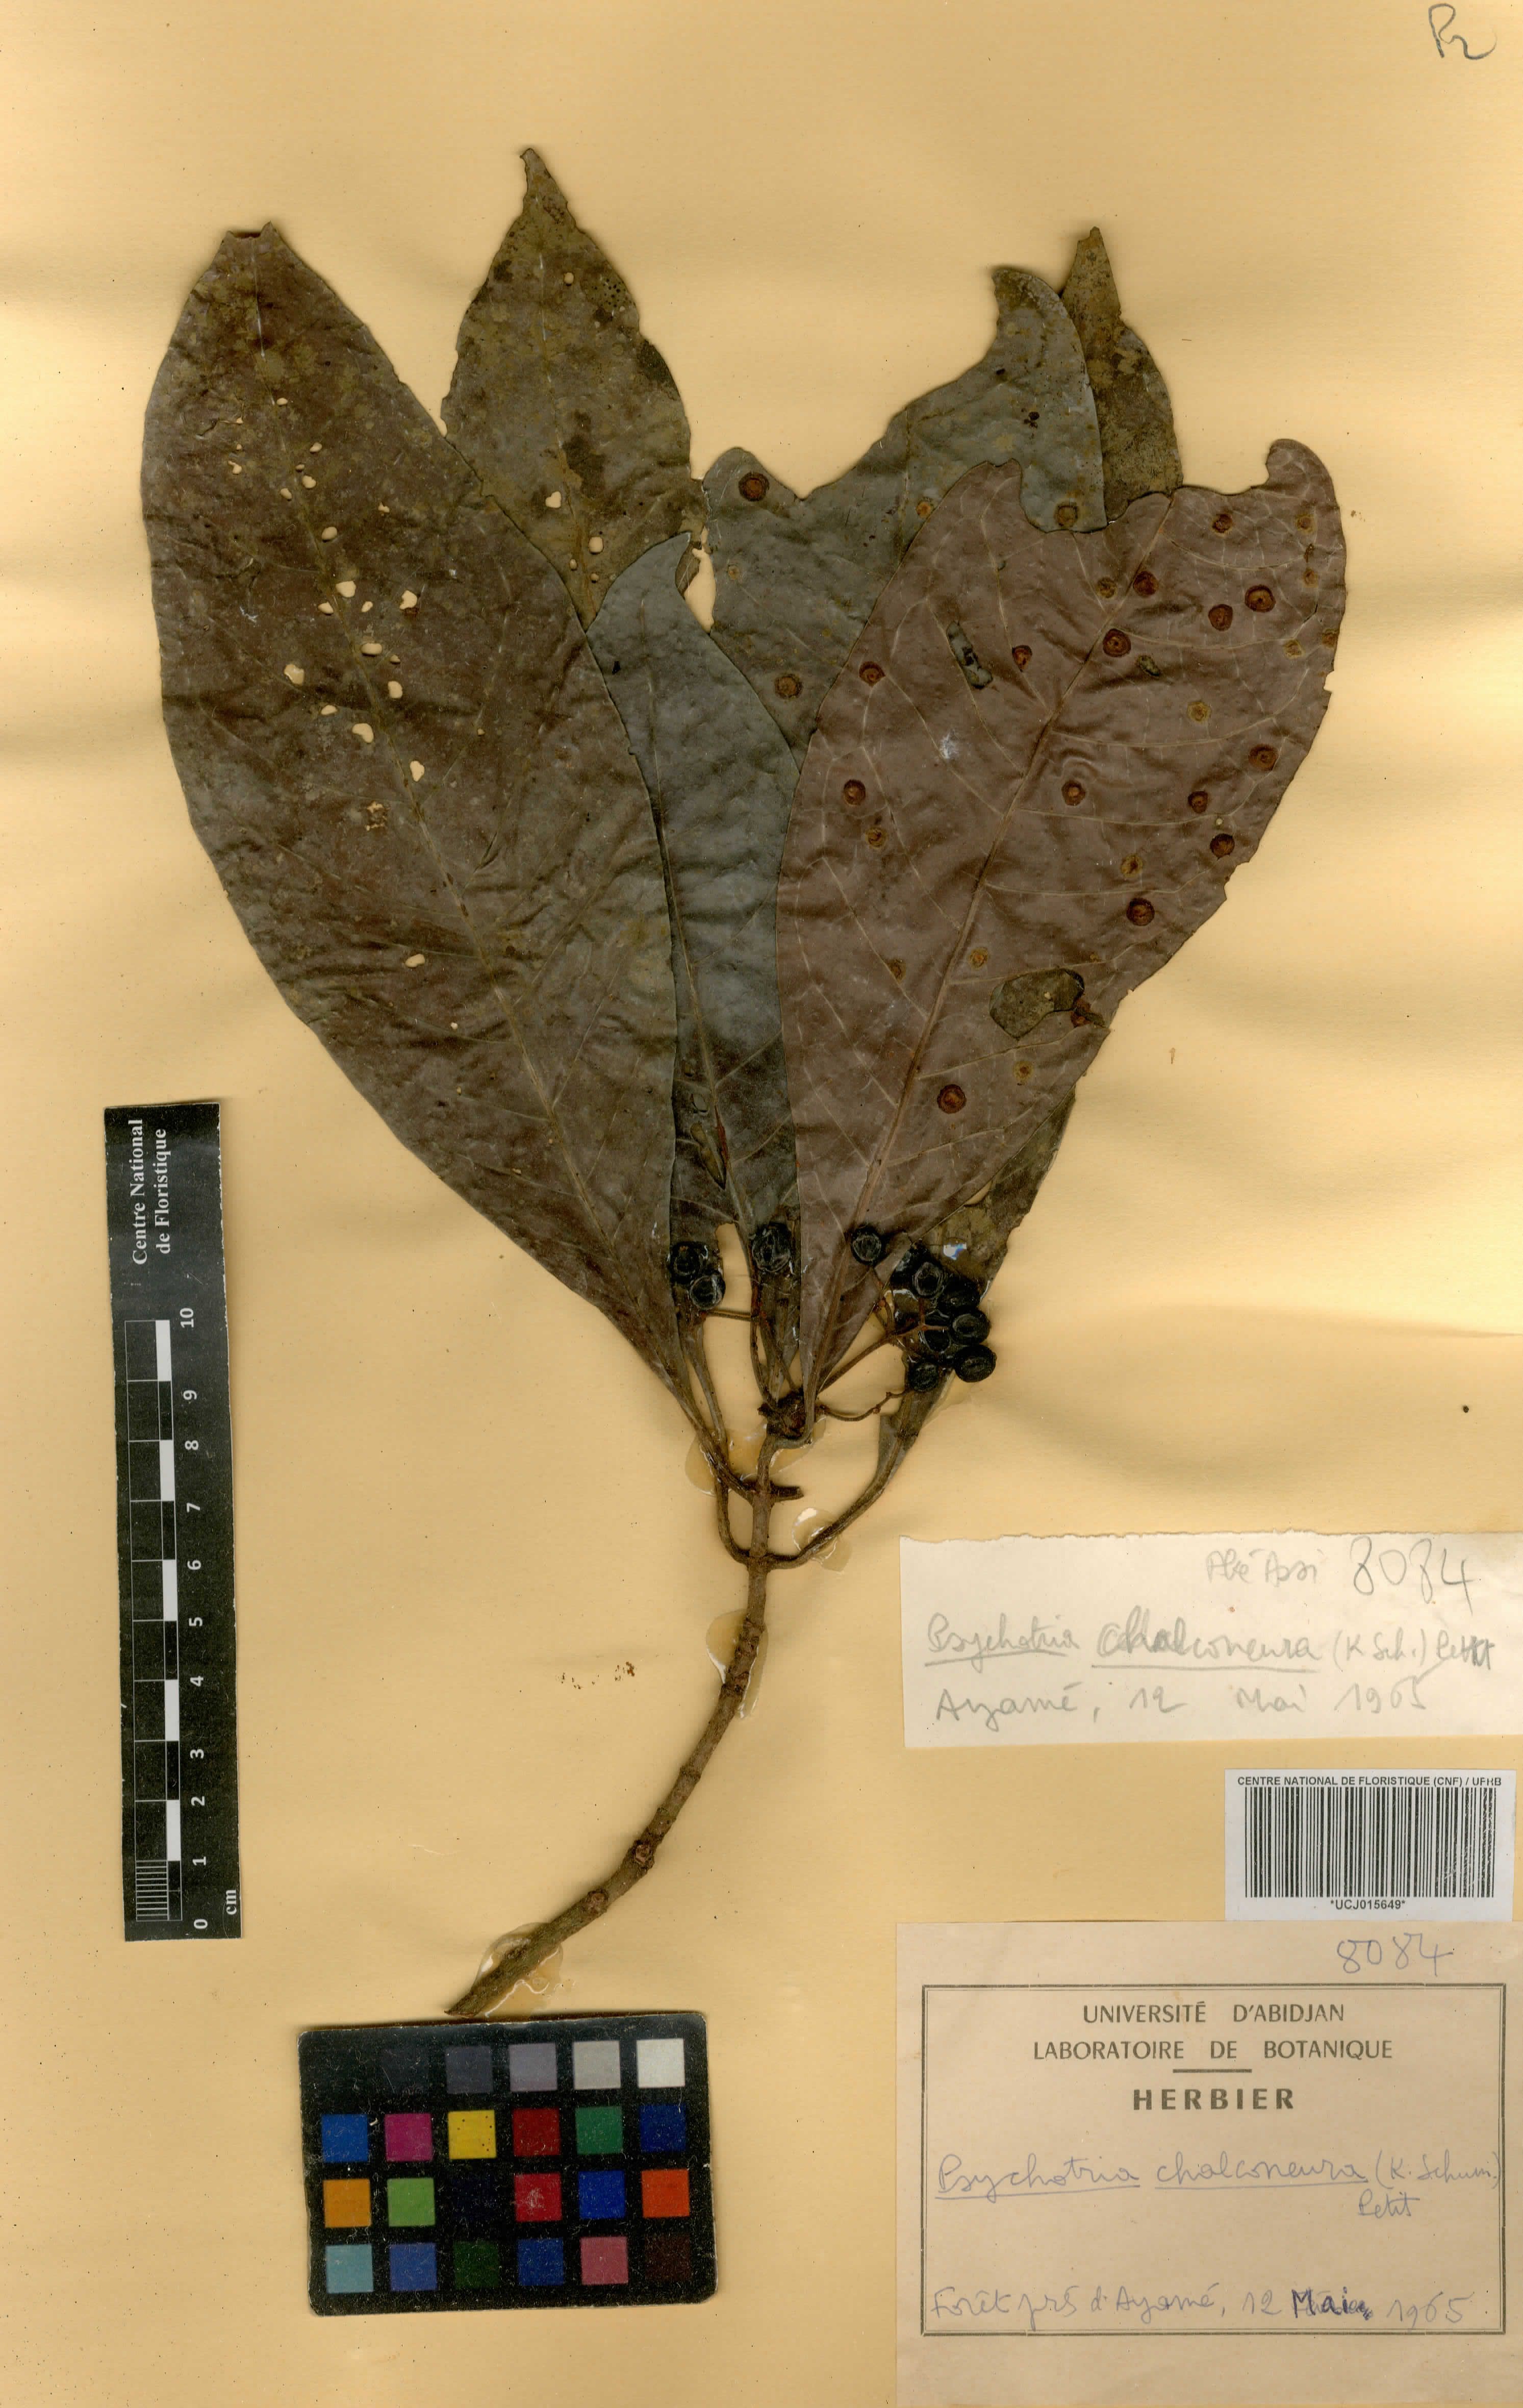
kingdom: Plantae
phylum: Tracheophyta
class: Magnoliopsida
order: Gentianales
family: Rubiaceae
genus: Psychotria
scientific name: Psychotria chalconeura
